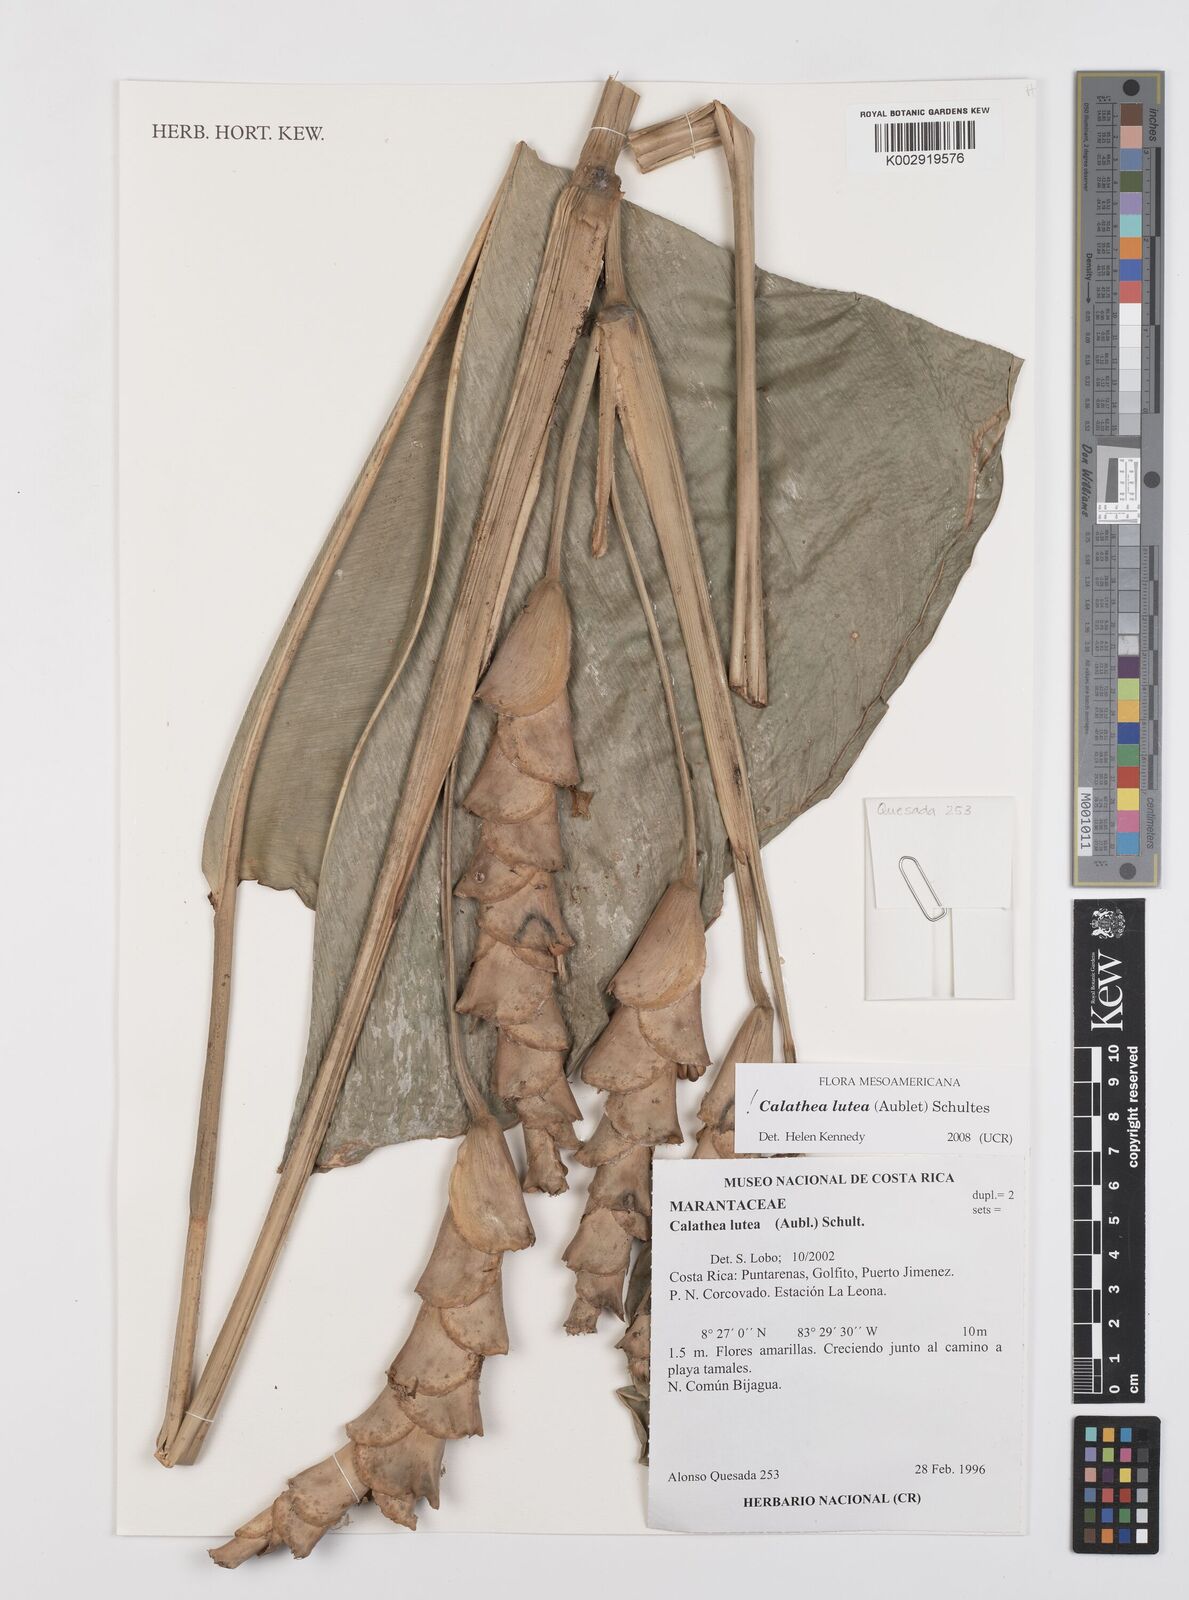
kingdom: Plantae
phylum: Tracheophyta
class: Liliopsida
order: Zingiberales
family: Marantaceae
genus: Calathea
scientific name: Calathea lutea
